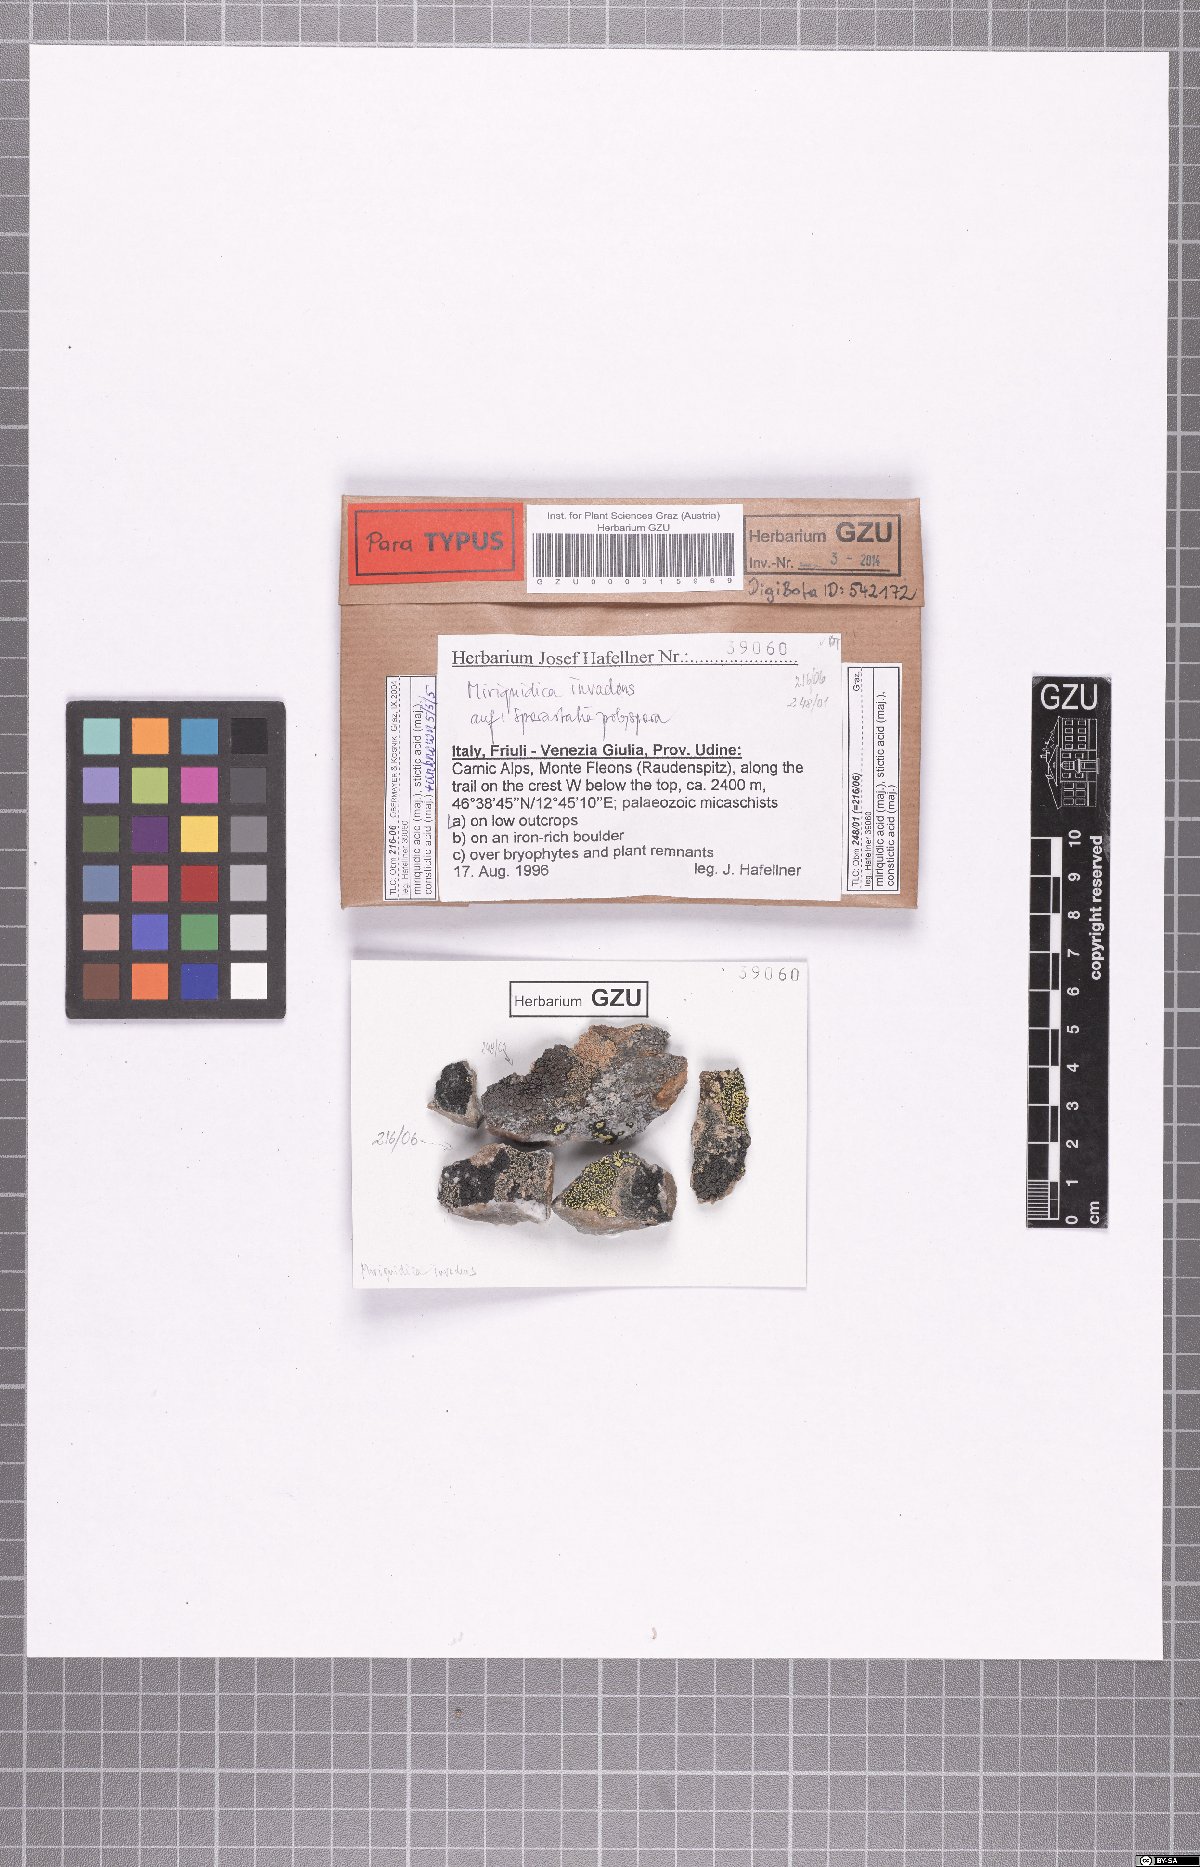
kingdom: Fungi
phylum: Ascomycota
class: Lecanoromycetes
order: Lecanorales
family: Lecanoraceae
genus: Miriquidica
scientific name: Miriquidica invadens
